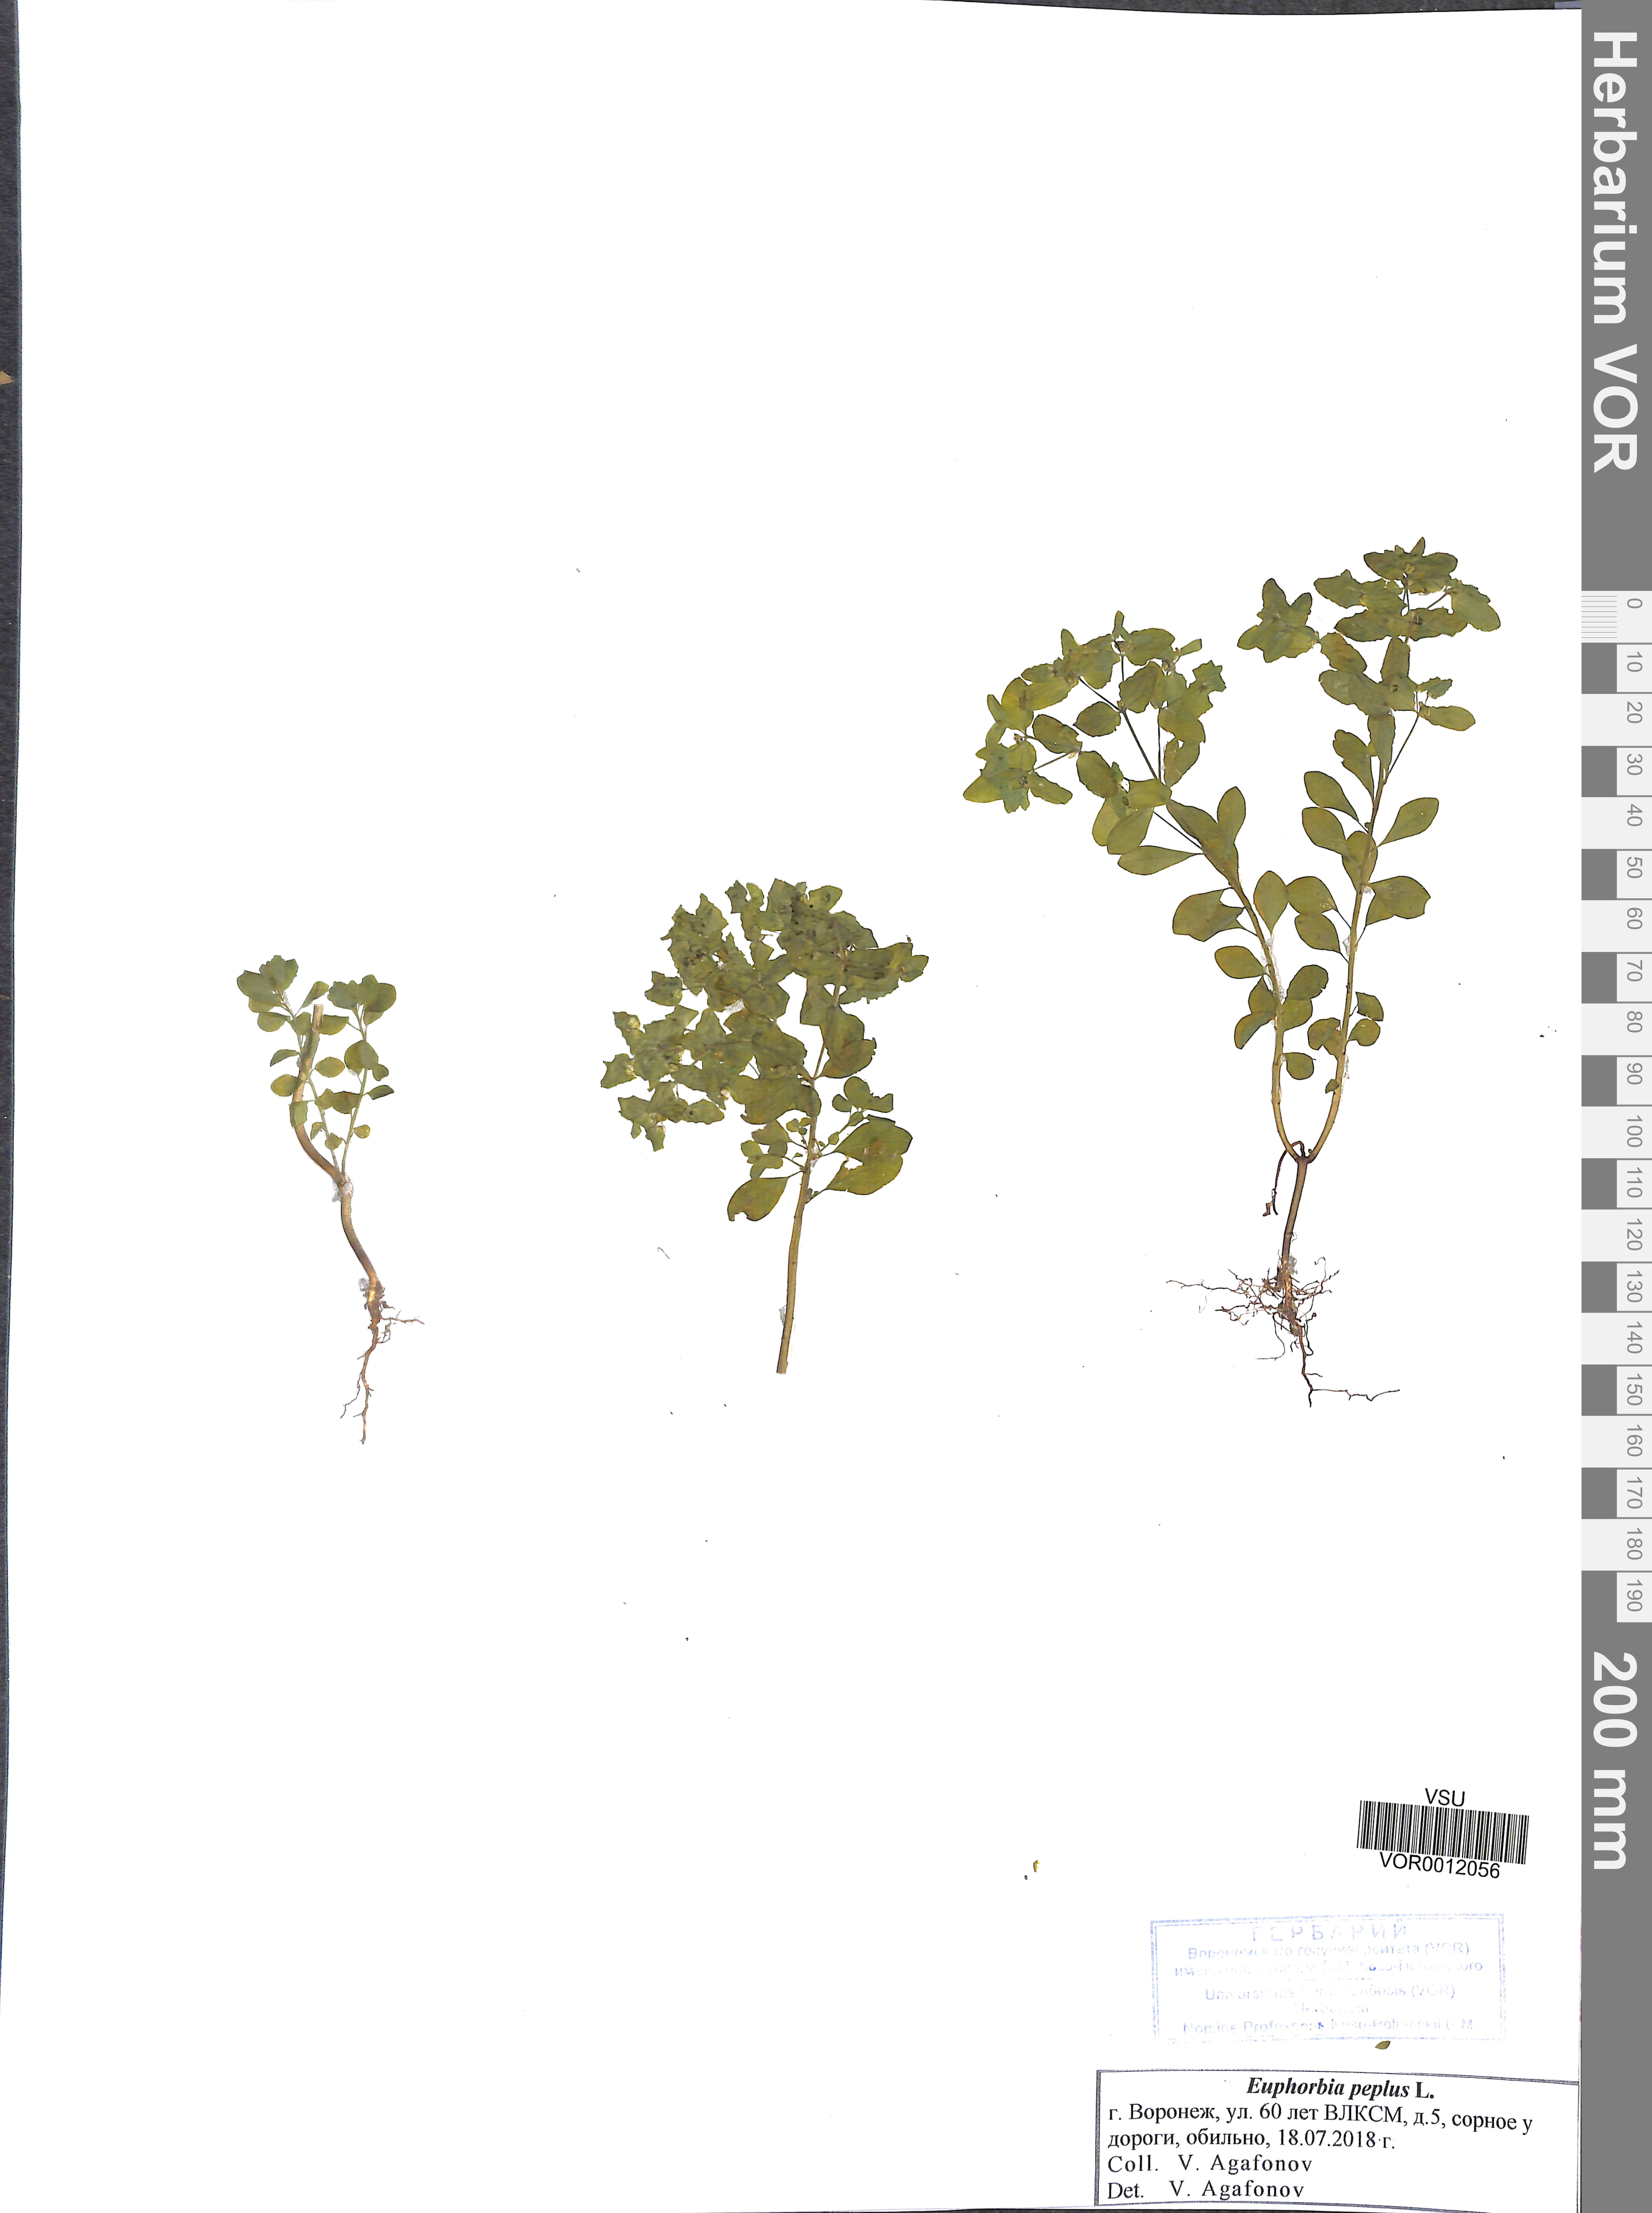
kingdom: Plantae
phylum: Tracheophyta
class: Magnoliopsida
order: Malpighiales
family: Euphorbiaceae
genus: Euphorbia
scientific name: Euphorbia peplus
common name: Petty spurge
